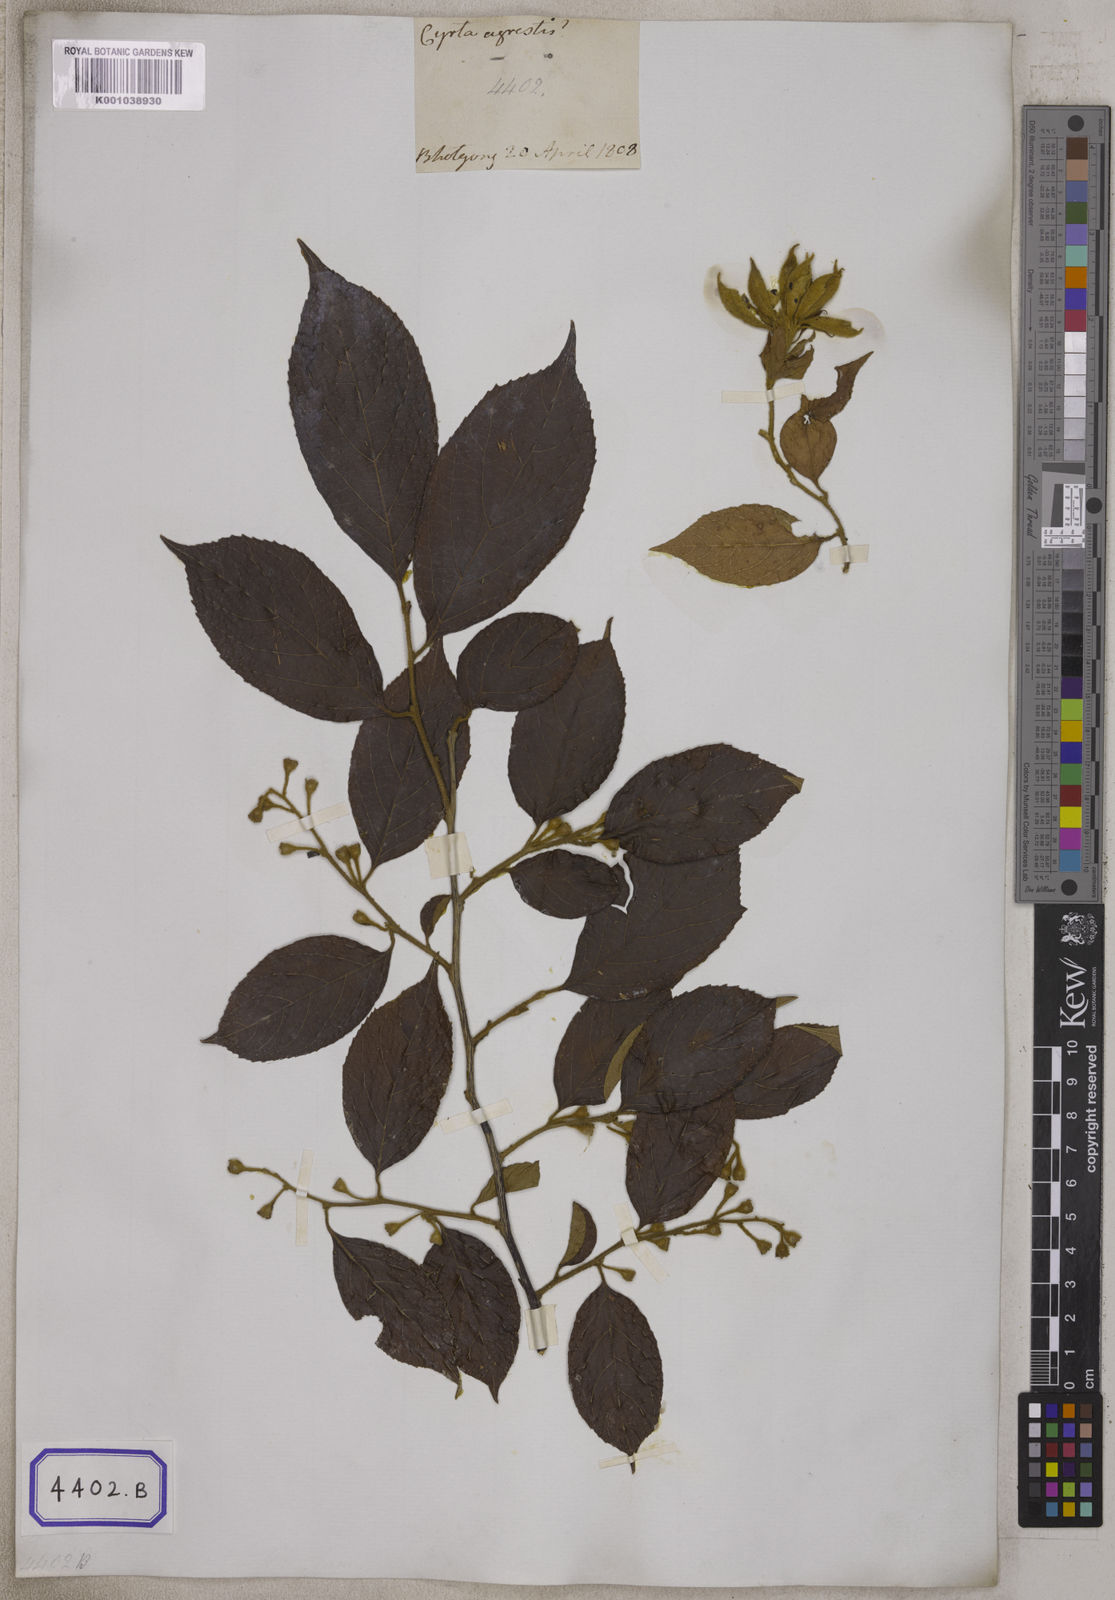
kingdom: Plantae
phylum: Tracheophyta
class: Magnoliopsida
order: Ericales
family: Styracaceae
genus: Styrax
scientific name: Styrax serrulatus
